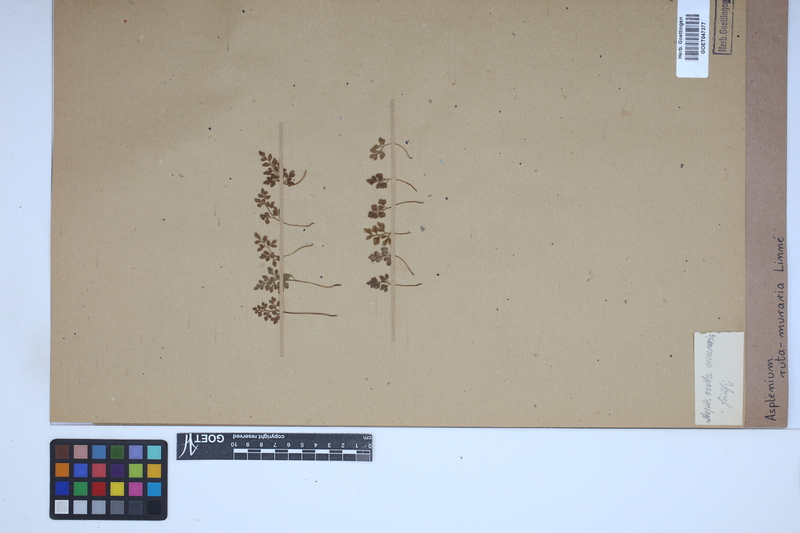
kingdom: Plantae
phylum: Tracheophyta
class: Polypodiopsida
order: Polypodiales
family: Aspleniaceae
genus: Asplenium
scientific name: Asplenium ruta-muraria
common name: Wall-rue
